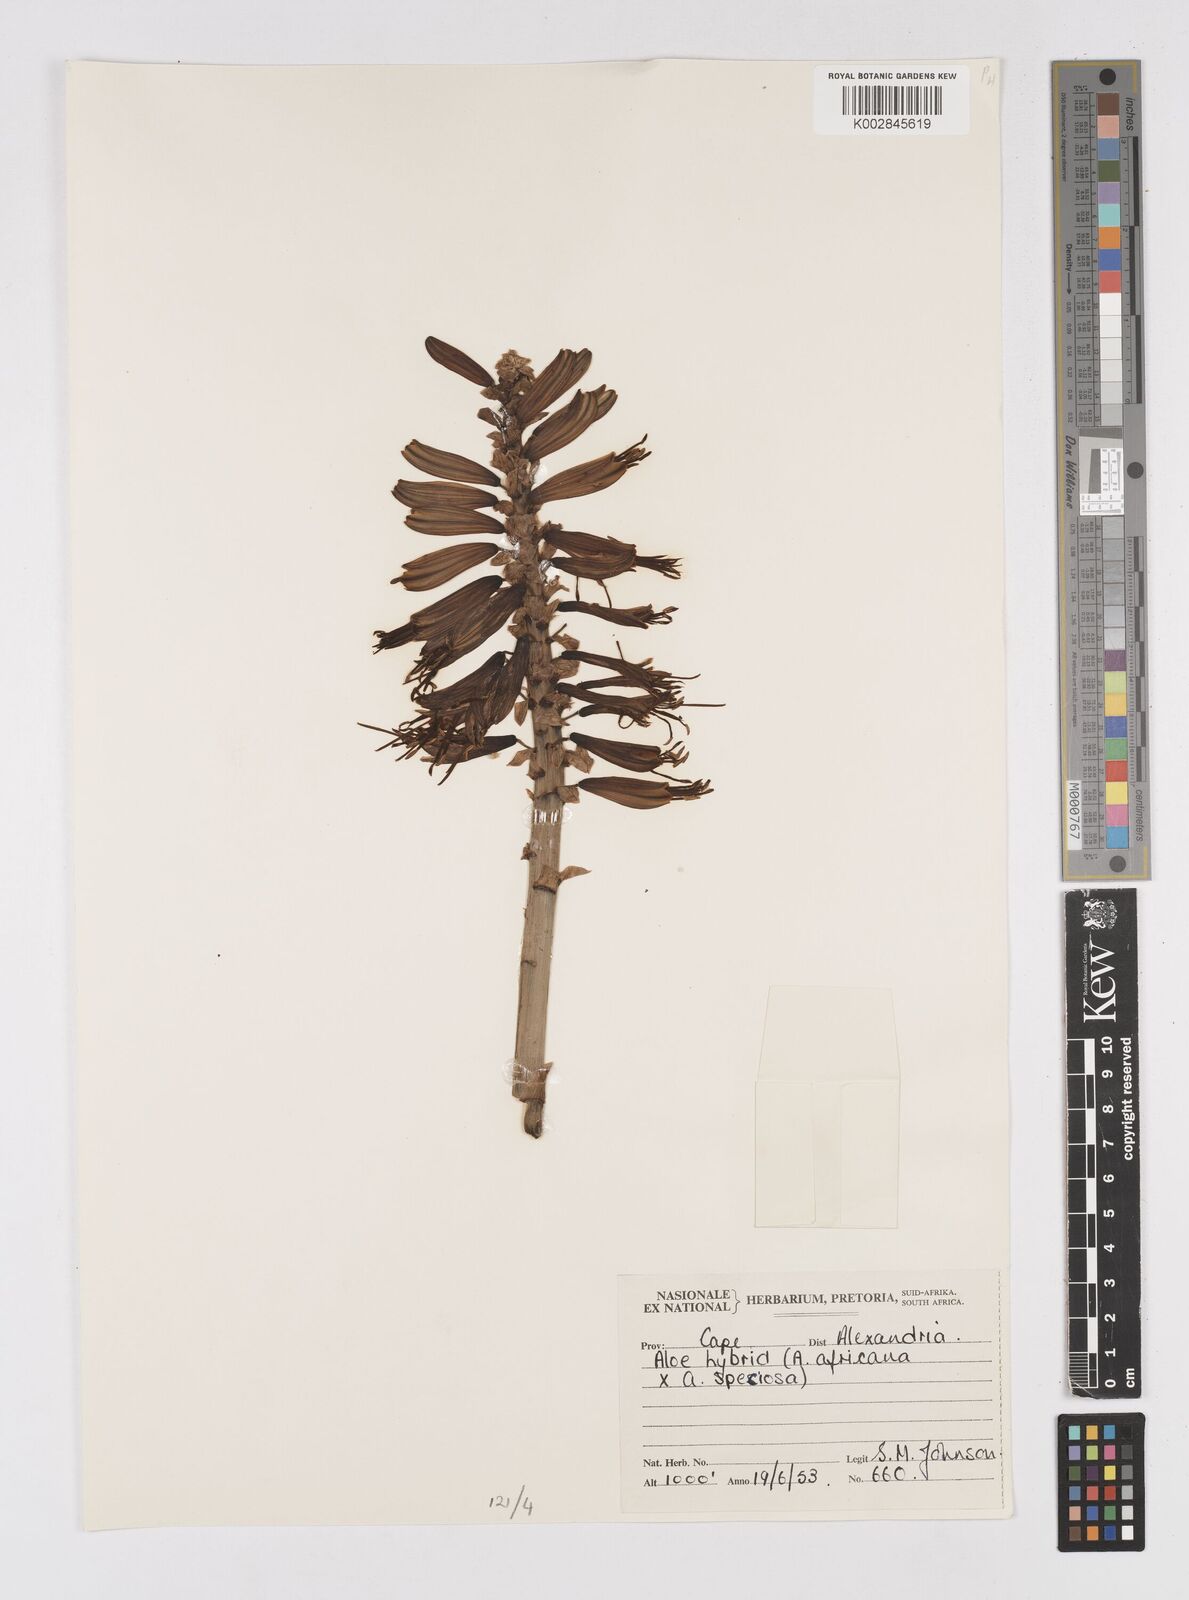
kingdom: Plantae
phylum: Tracheophyta
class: Liliopsida
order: Asparagales
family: Asphodelaceae
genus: Aloe
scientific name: Aloe africana
